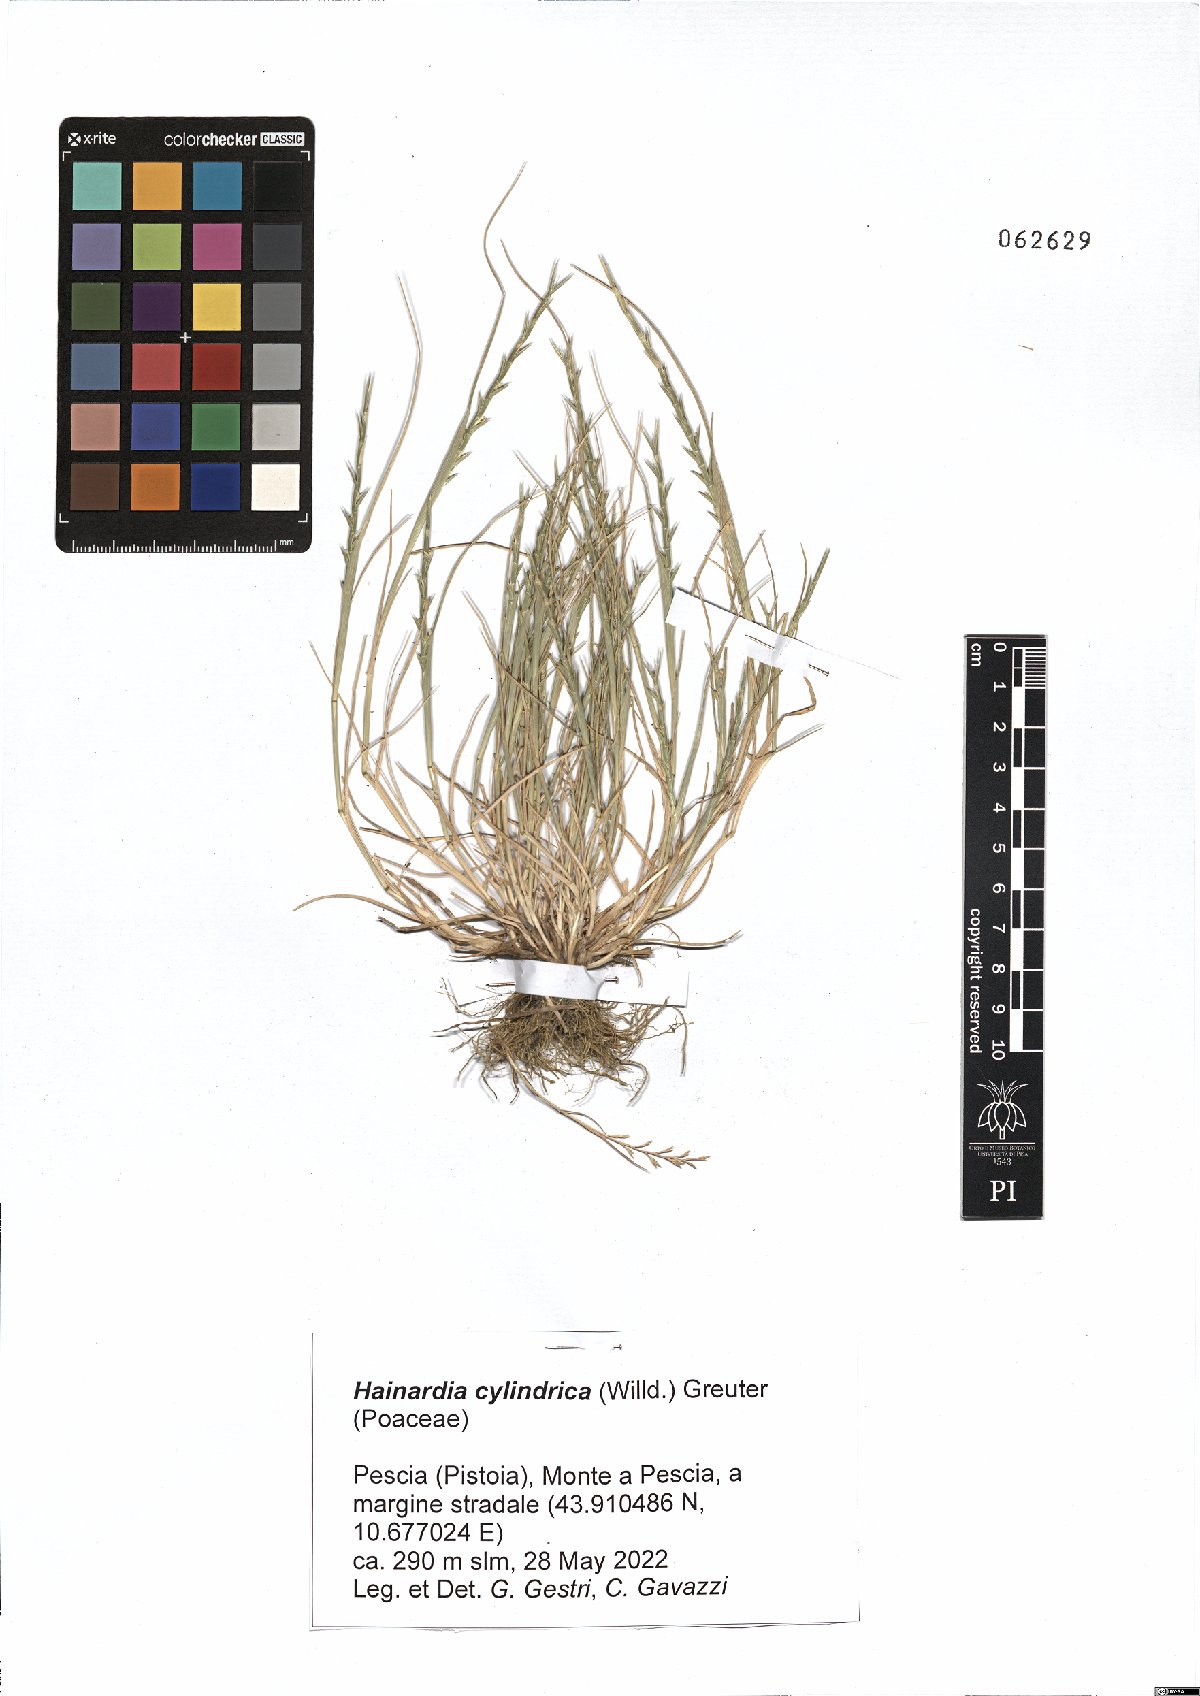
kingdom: Plantae
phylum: Tracheophyta
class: Liliopsida
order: Poales
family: Poaceae
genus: Parapholis
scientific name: Parapholis cylindrica
